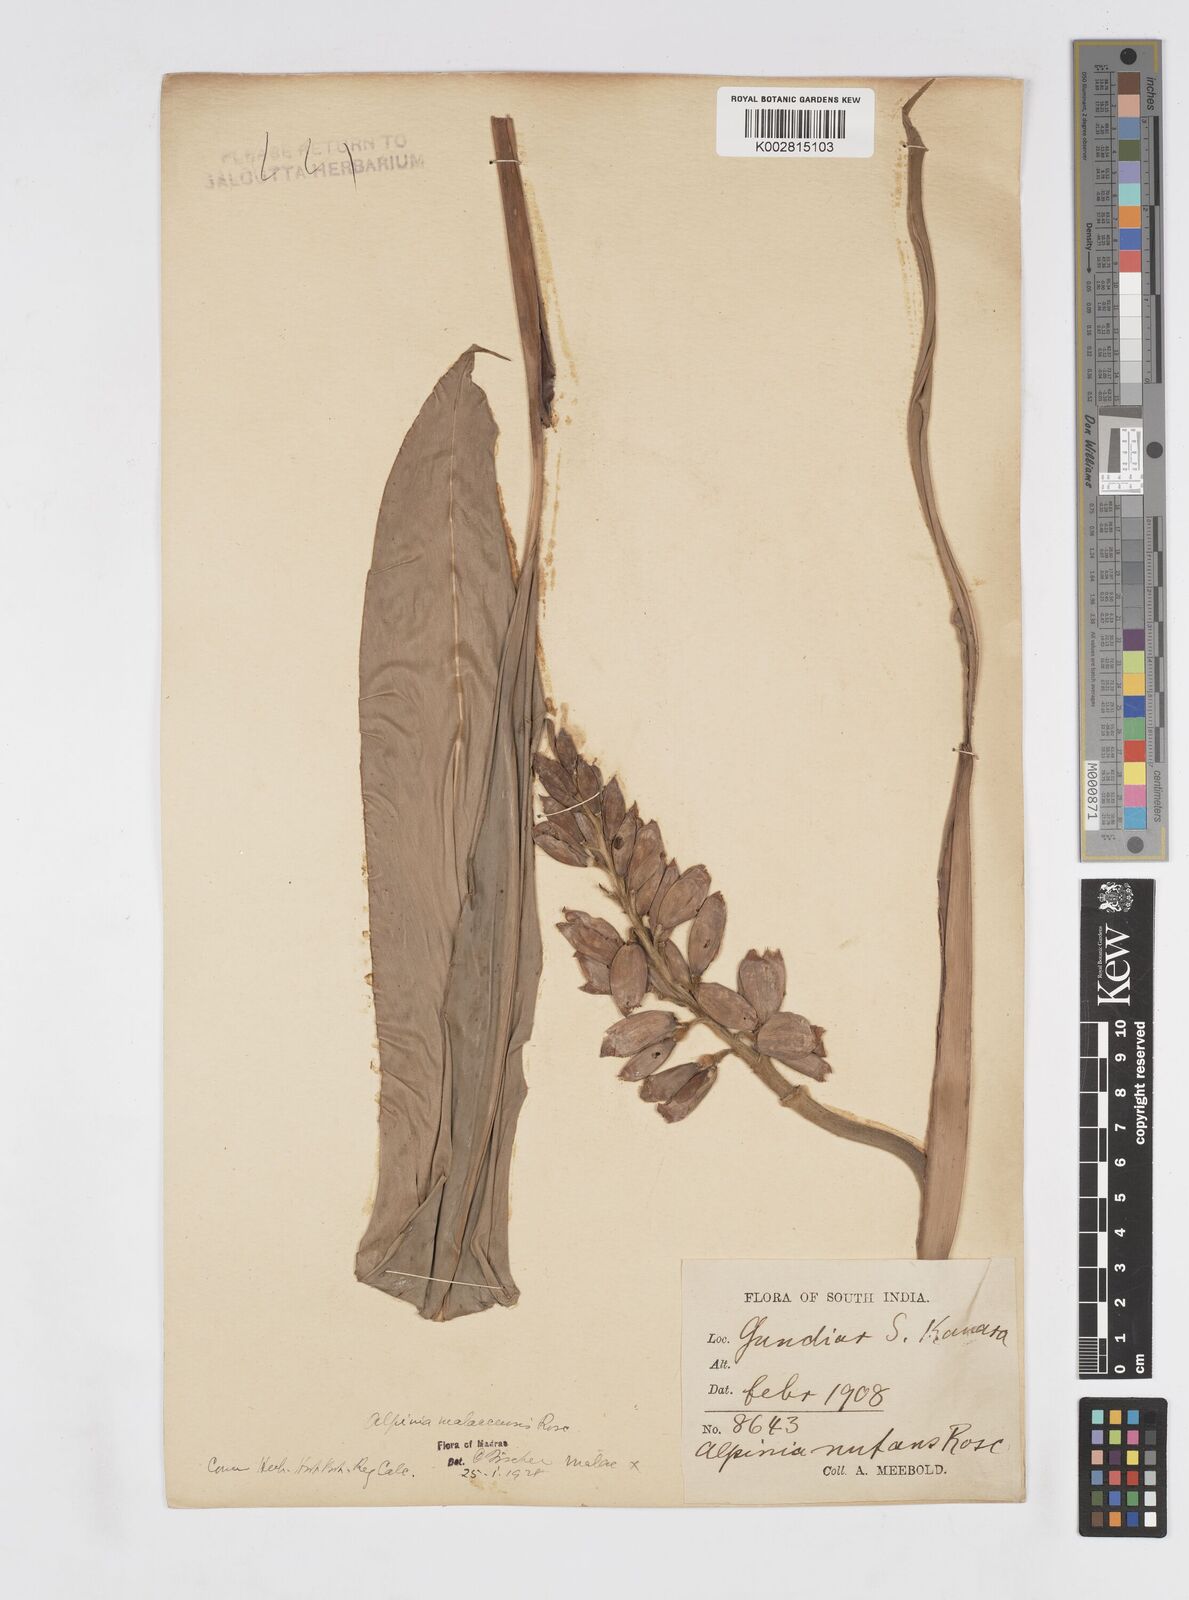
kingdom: Plantae
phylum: Tracheophyta
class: Liliopsida
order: Zingiberales
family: Zingiberaceae
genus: Alpinia
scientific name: Alpinia malaccensis
